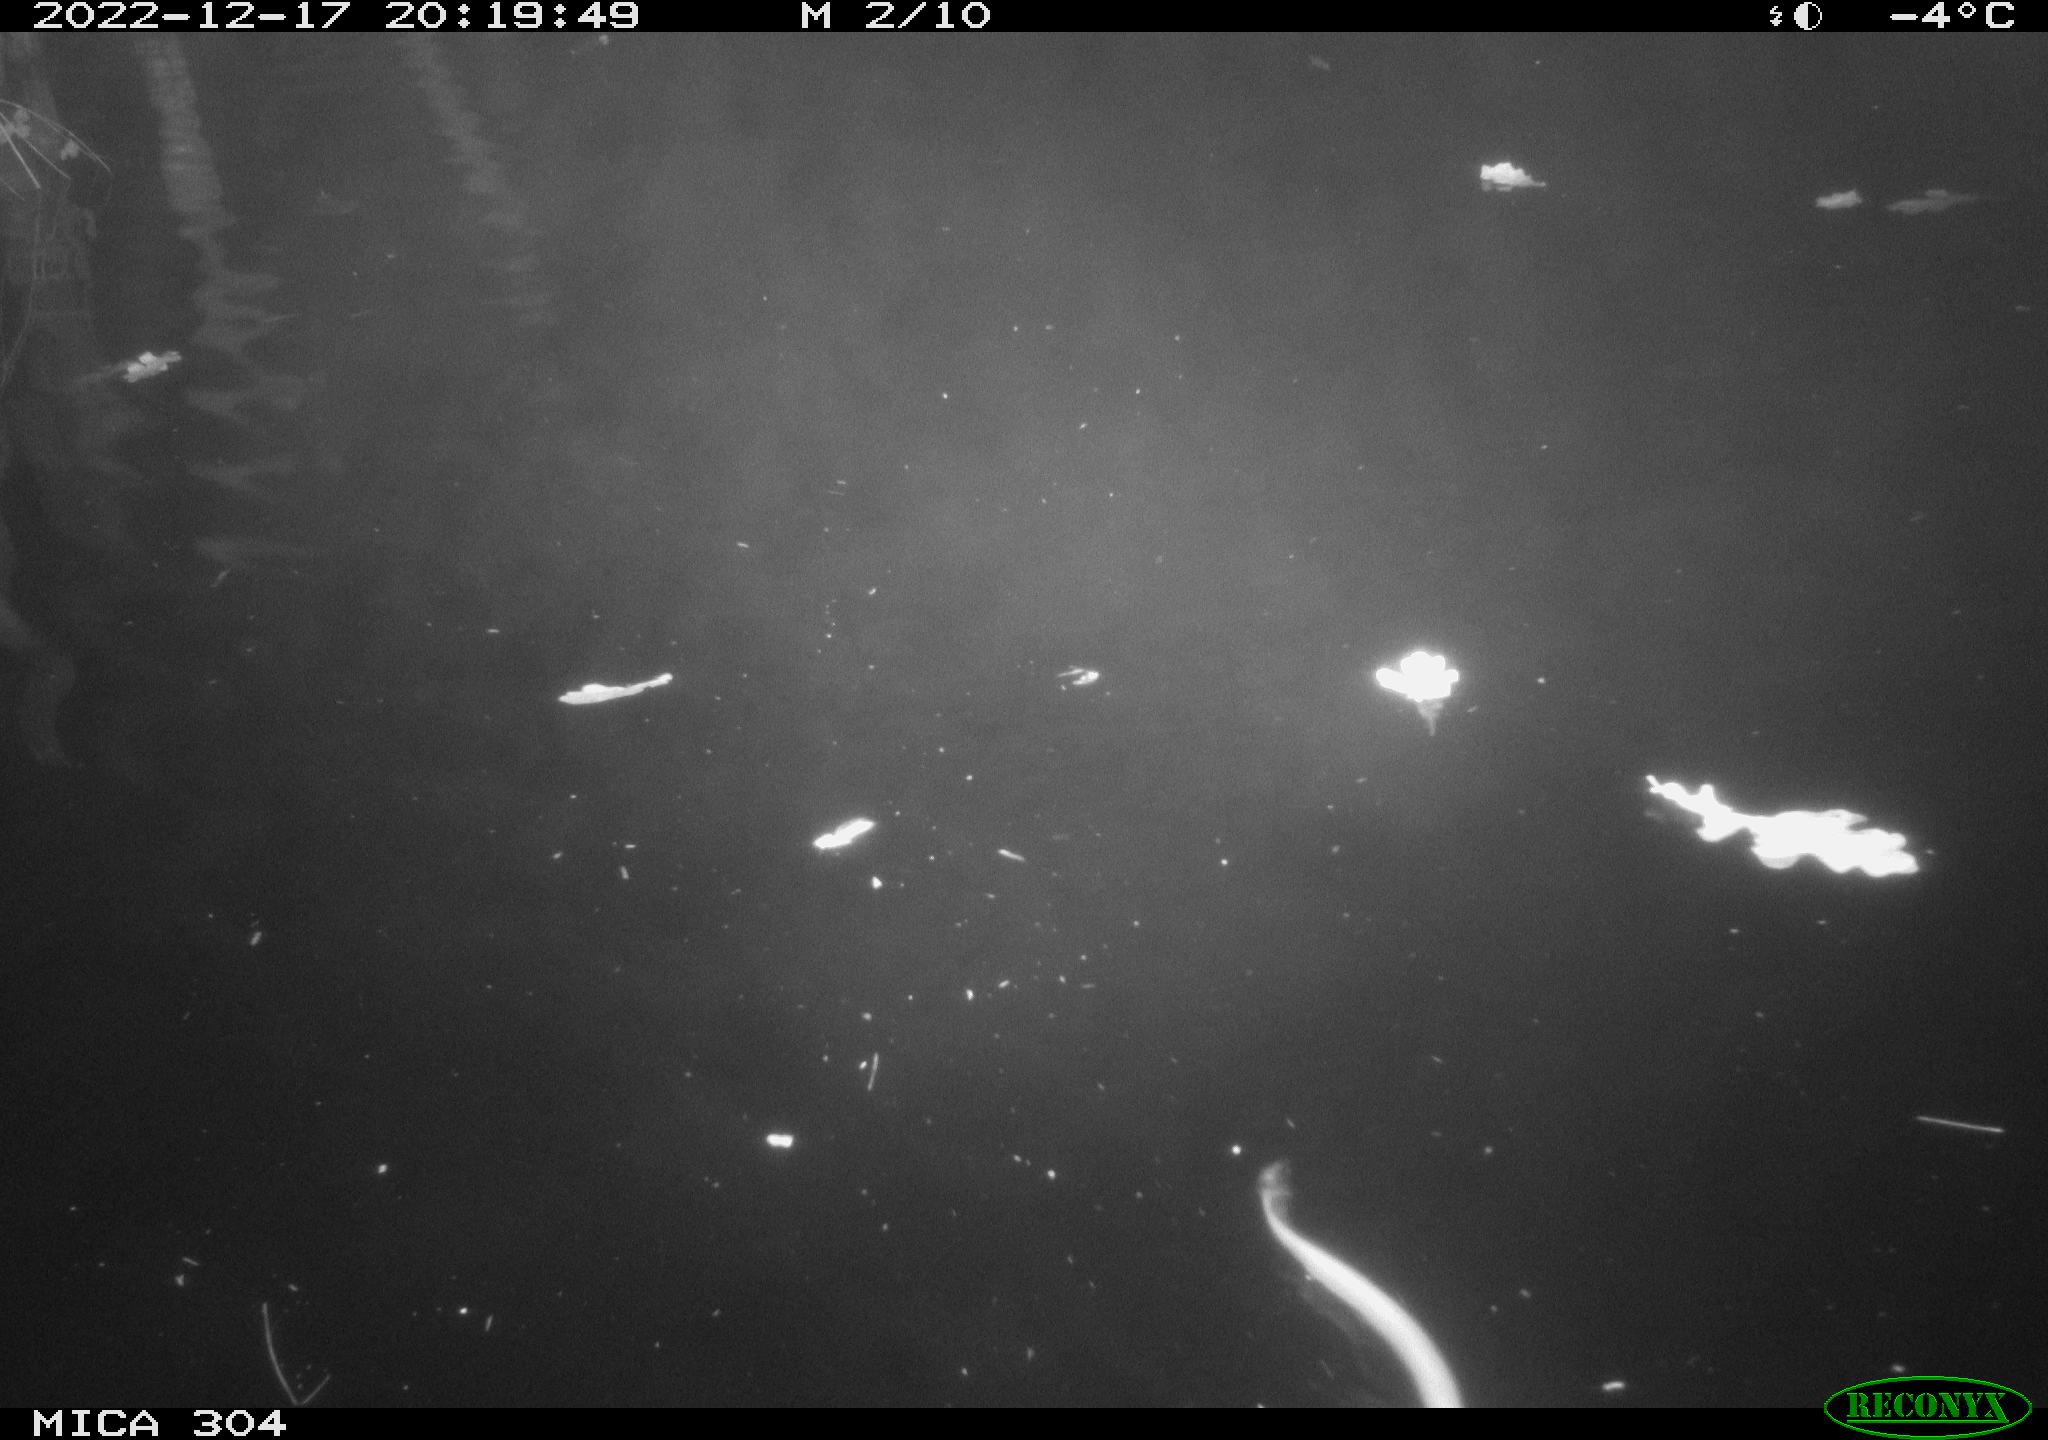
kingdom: Animalia
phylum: Chordata
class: Mammalia
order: Rodentia
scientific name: Rodentia
